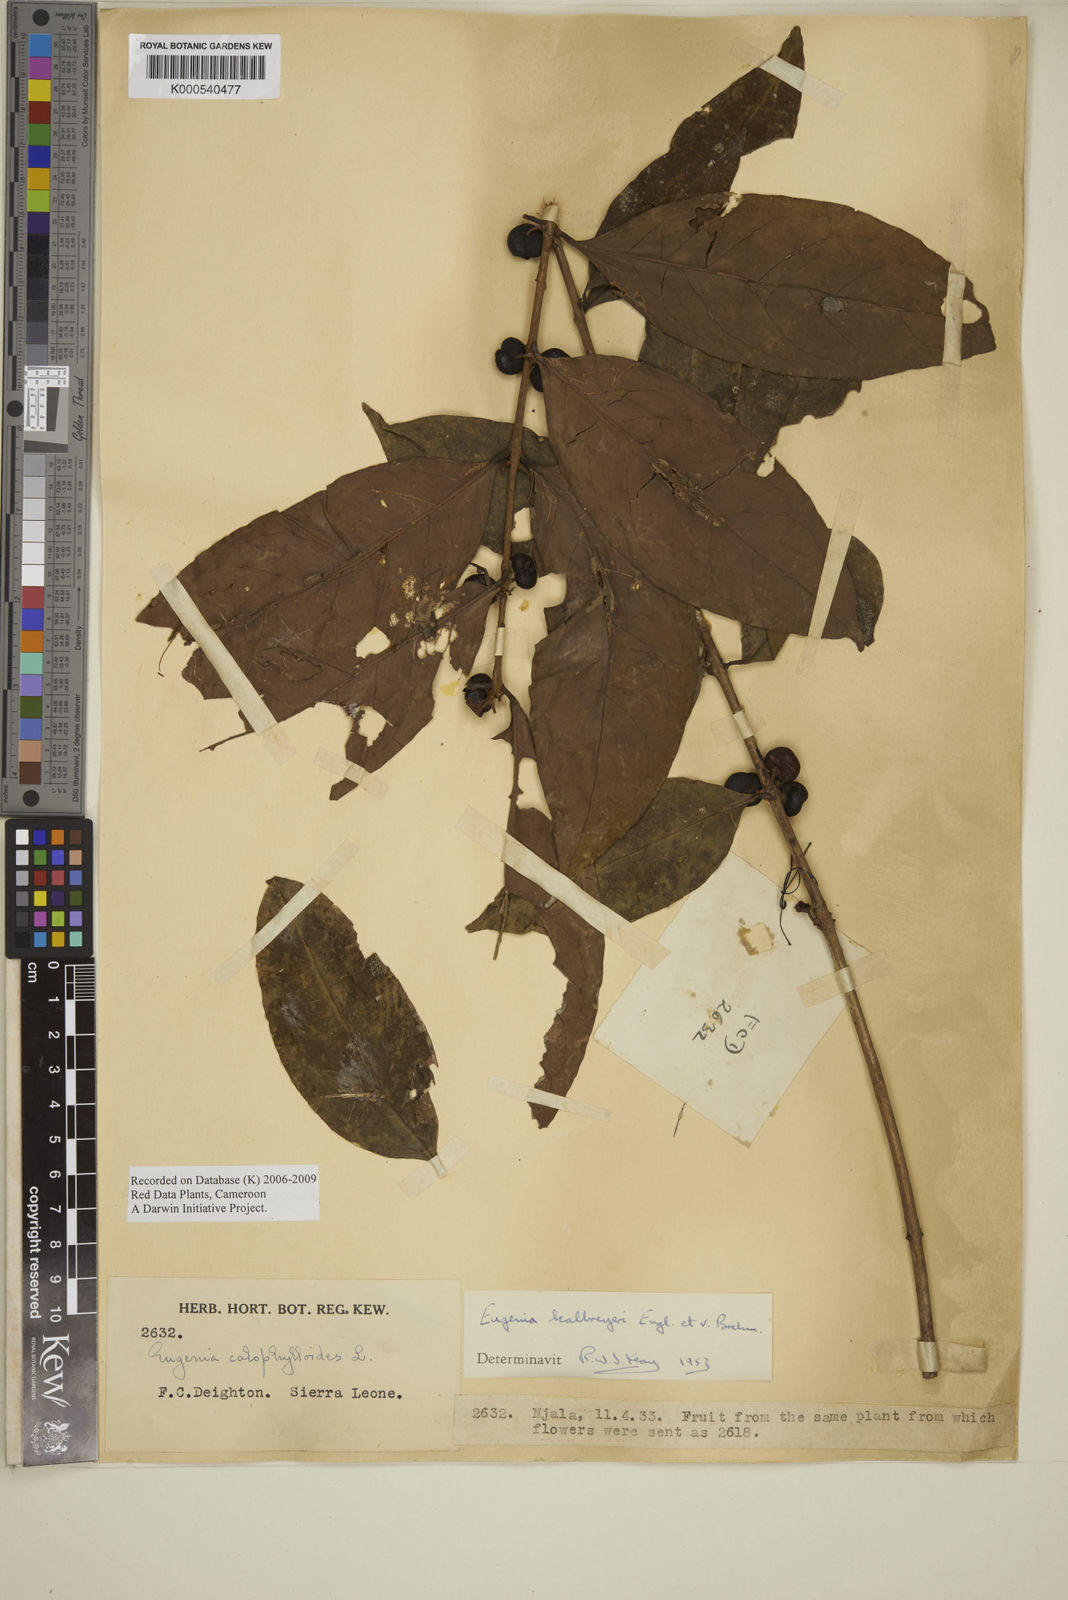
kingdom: Plantae
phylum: Tracheophyta
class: Magnoliopsida
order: Myrtales
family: Myrtaceae
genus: Eugenia
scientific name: Eugenia kalbreyeri
